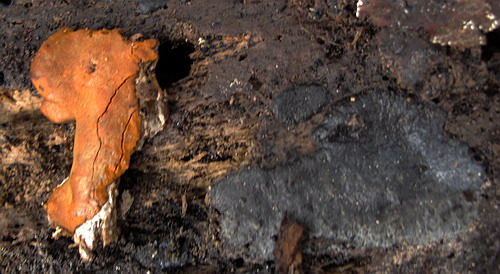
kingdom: Protozoa
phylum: Mycetozoa
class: Myxomycetes
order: Trichiales
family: Dictydiaethaliaceae
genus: Dictydiaethalium
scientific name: Dictydiaethalium plumbeum
